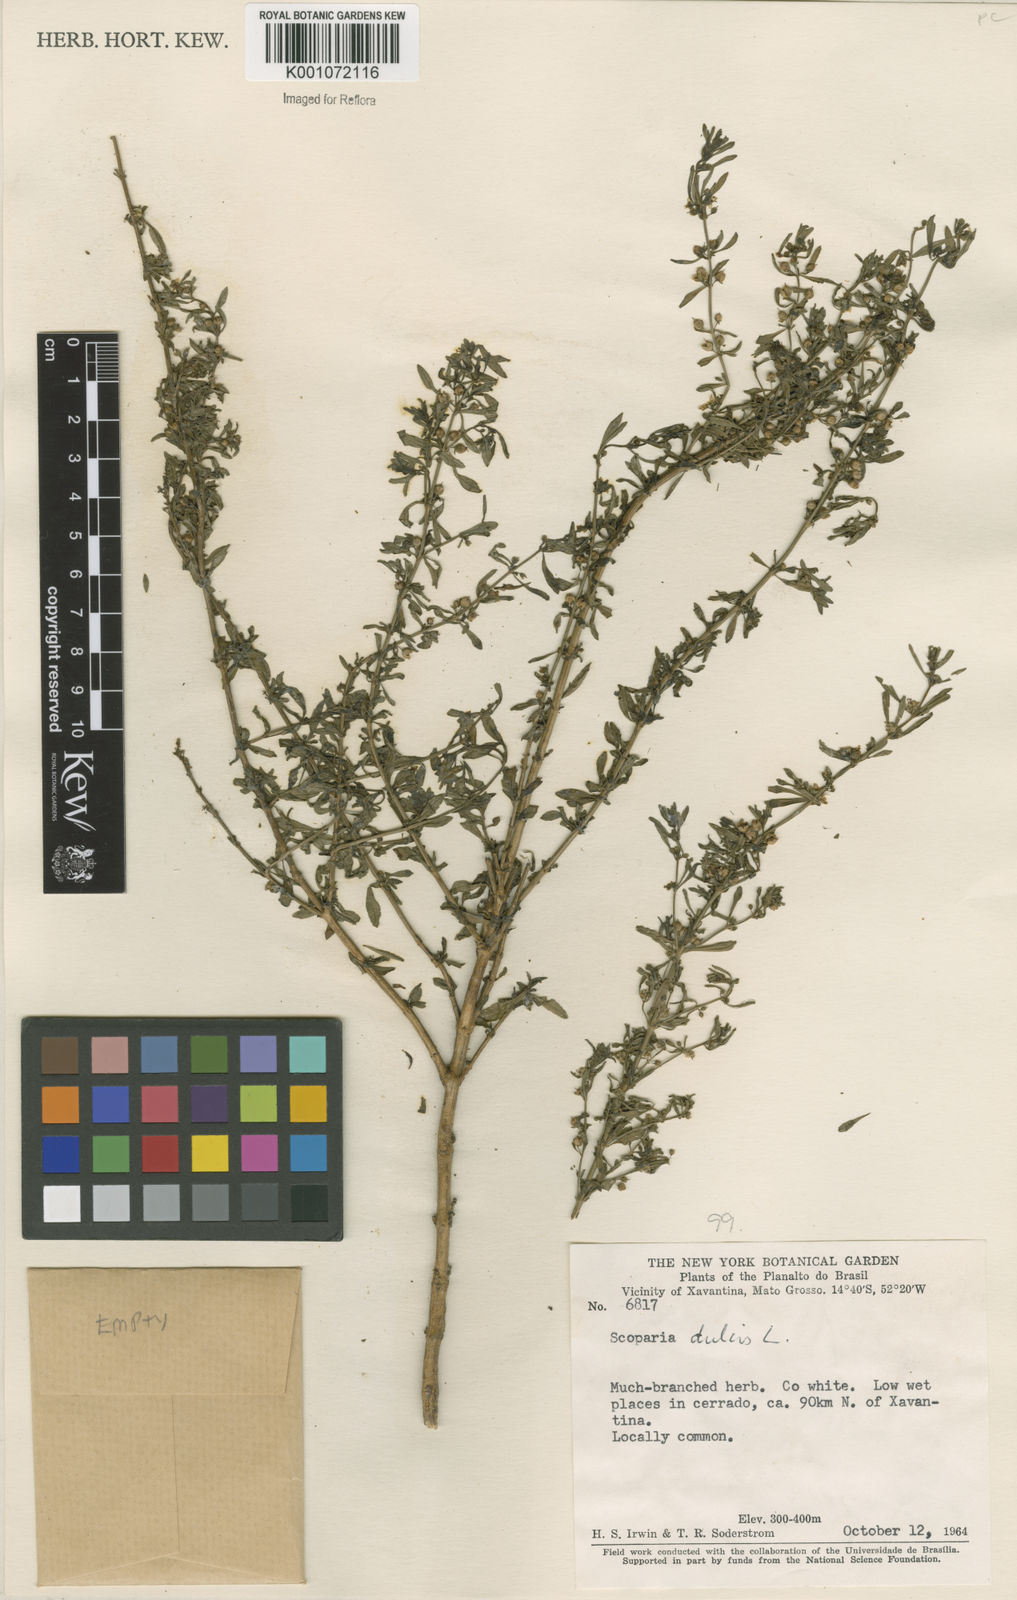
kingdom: Plantae
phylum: Tracheophyta
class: Magnoliopsida
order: Lamiales
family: Plantaginaceae
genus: Scoparia
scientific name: Scoparia dulcis
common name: Scoparia-weed
